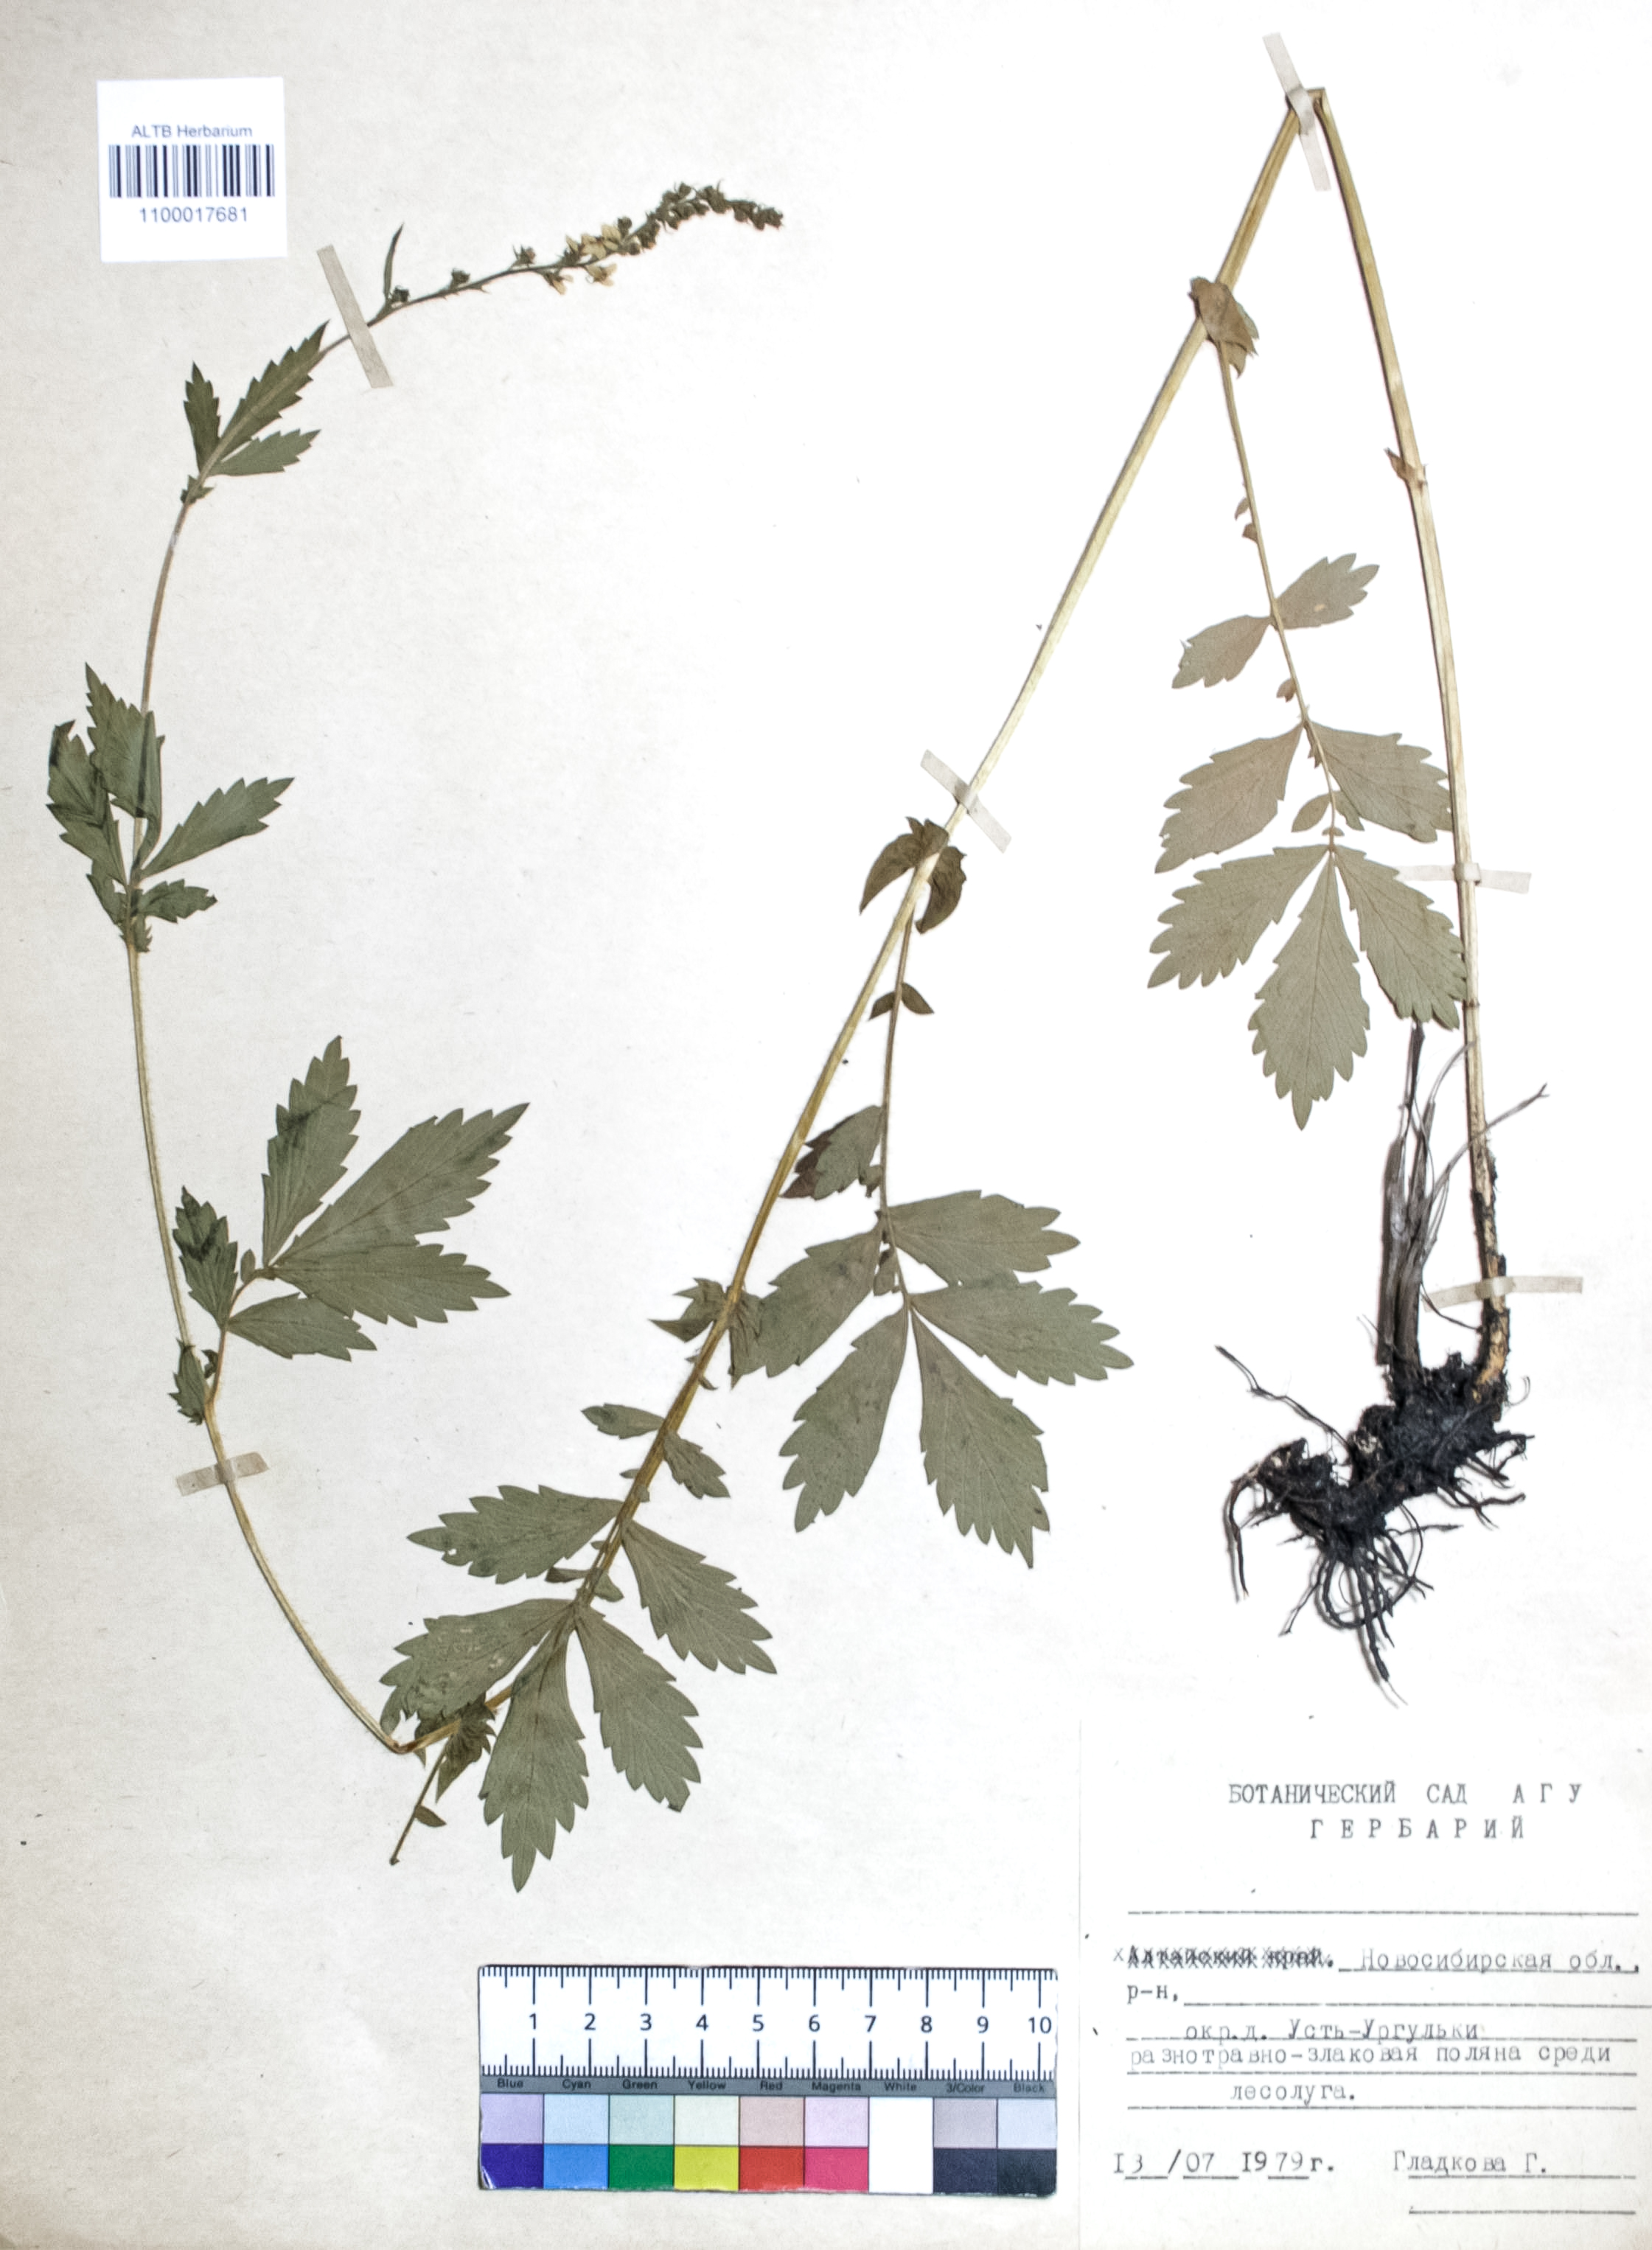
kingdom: Plantae
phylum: Tracheophyta
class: Magnoliopsida
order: Rosales
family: Rosaceae
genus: Agrimonia
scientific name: Agrimonia pilosa
